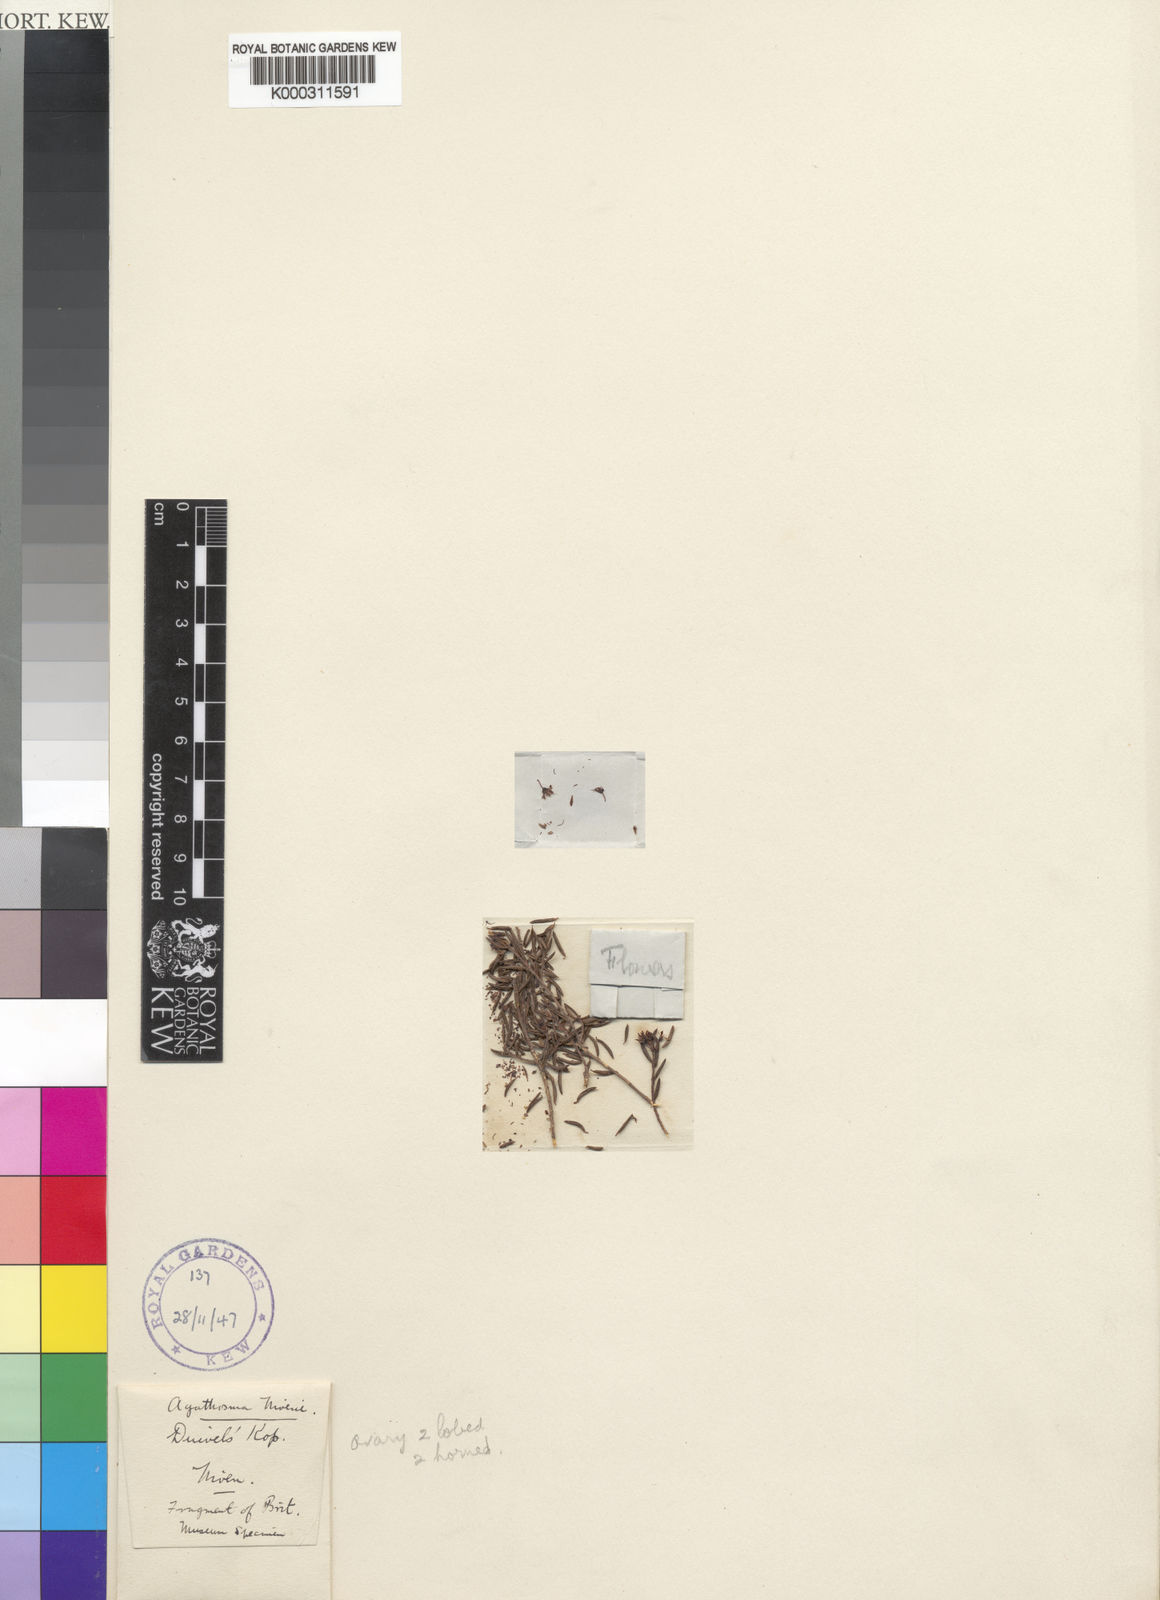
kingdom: Plantae
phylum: Tracheophyta
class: Magnoliopsida
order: Sapindales
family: Rutaceae
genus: Agathosma
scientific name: Agathosma mundii
